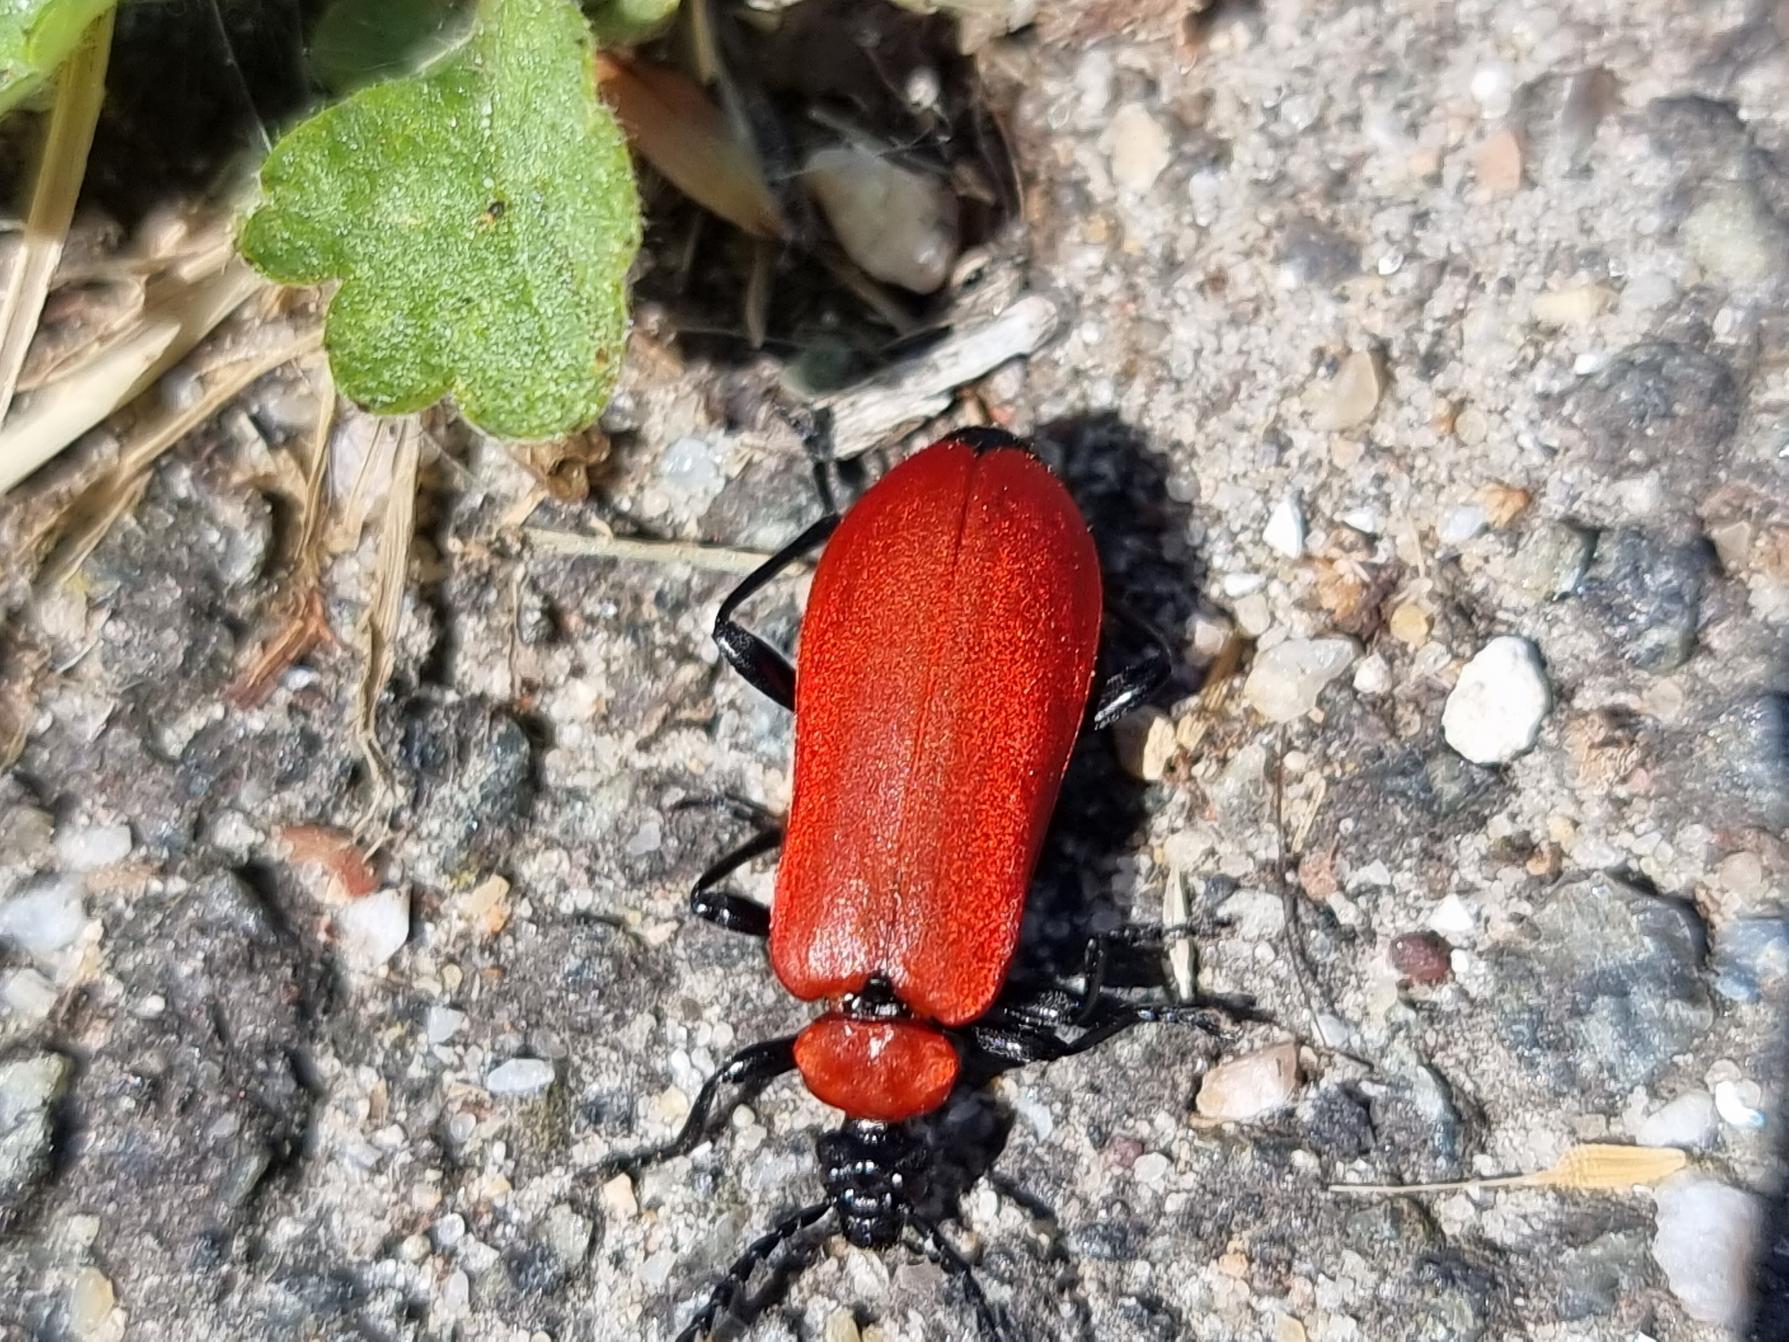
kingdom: Animalia
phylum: Arthropoda
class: Insecta
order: Coleoptera
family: Pyrochroidae
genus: Pyrochroa
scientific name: Pyrochroa coccinea
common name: Sorthovedet kardinalbille
